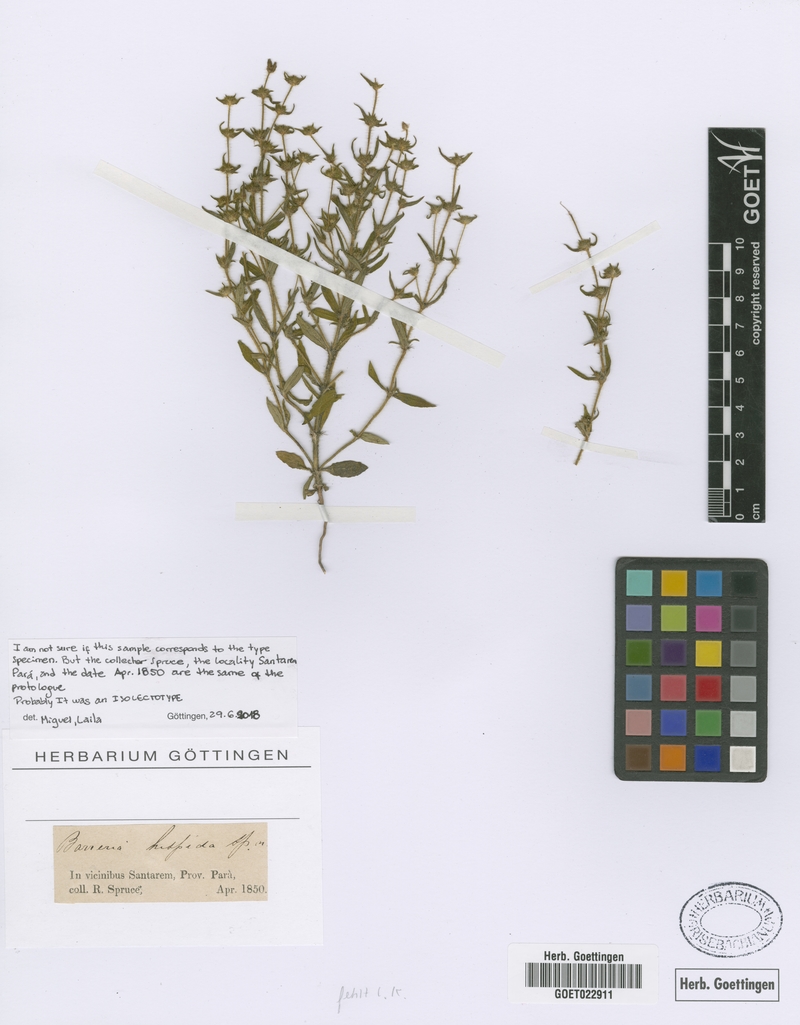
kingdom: Plantae
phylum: Tracheophyta
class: Magnoliopsida
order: Gentianales
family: Rubiaceae
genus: Spermacoce
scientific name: Spermacoce hispida
